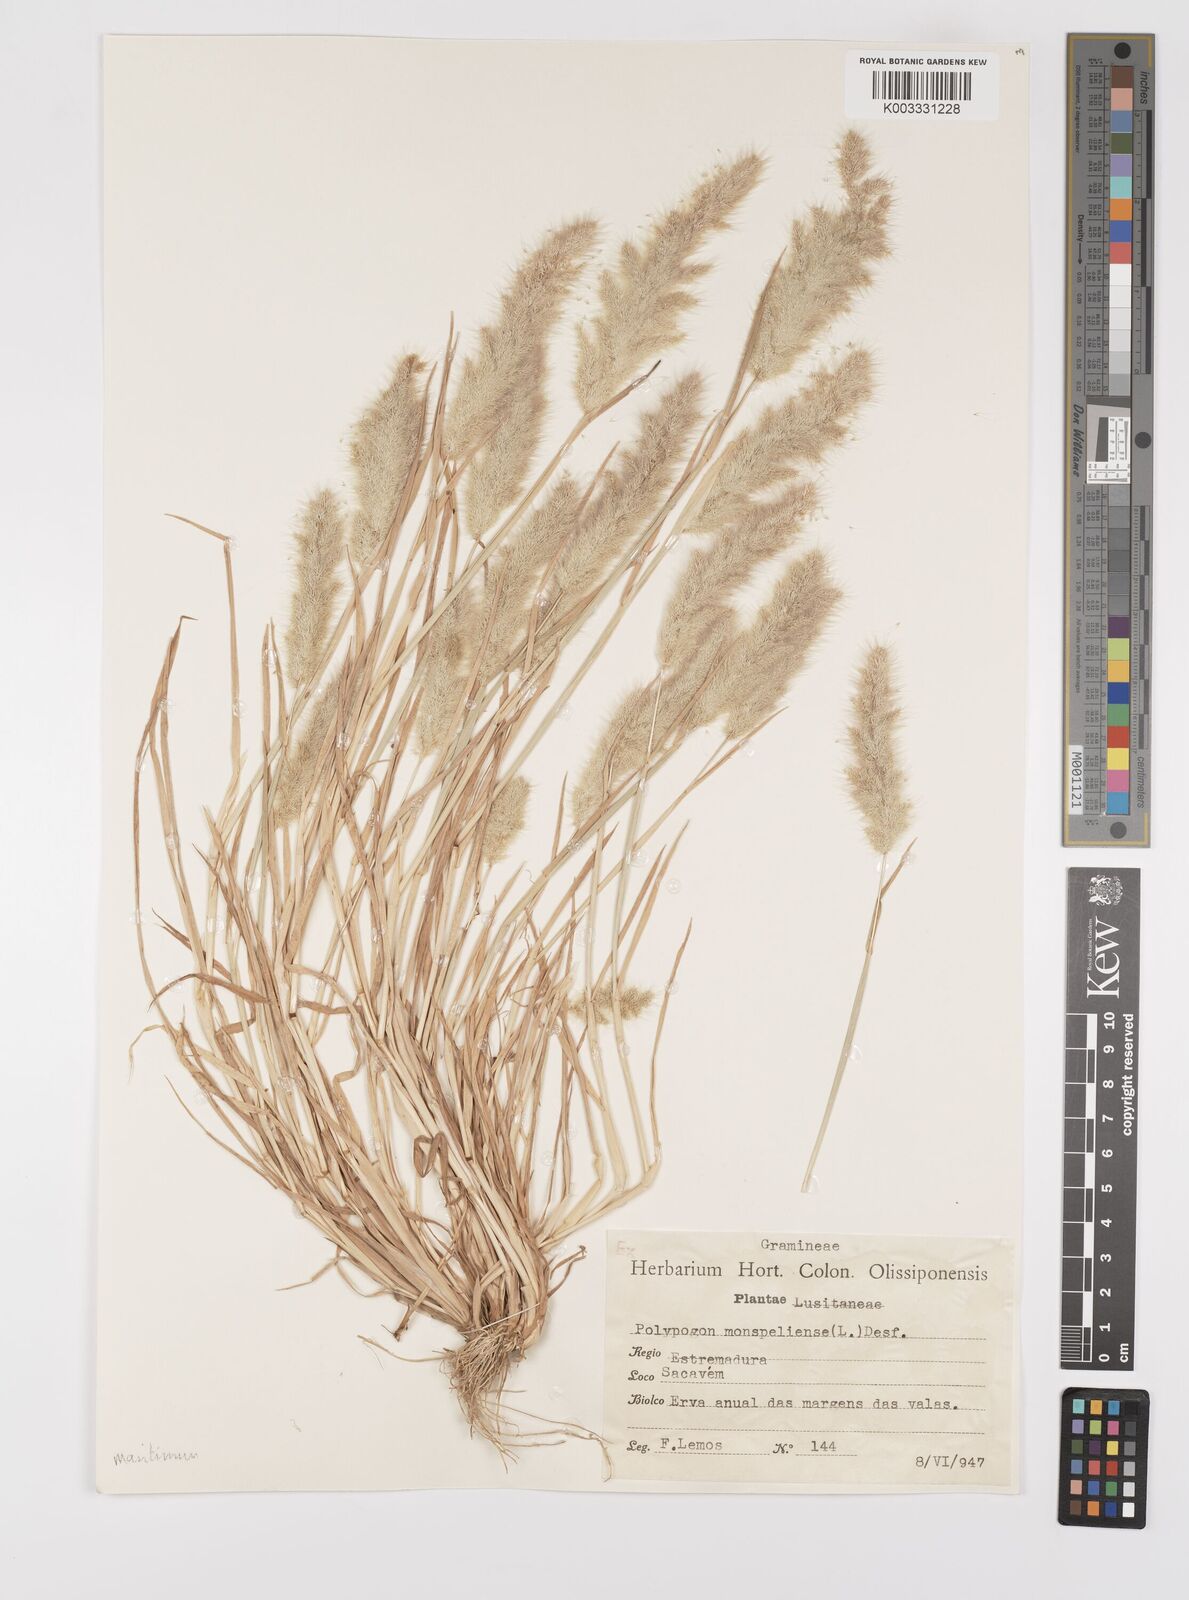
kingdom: Plantae
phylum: Tracheophyta
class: Liliopsida
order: Poales
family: Poaceae
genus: Polypogon
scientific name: Polypogon maritimus
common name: Mediterranean rabbitsfoot grass
